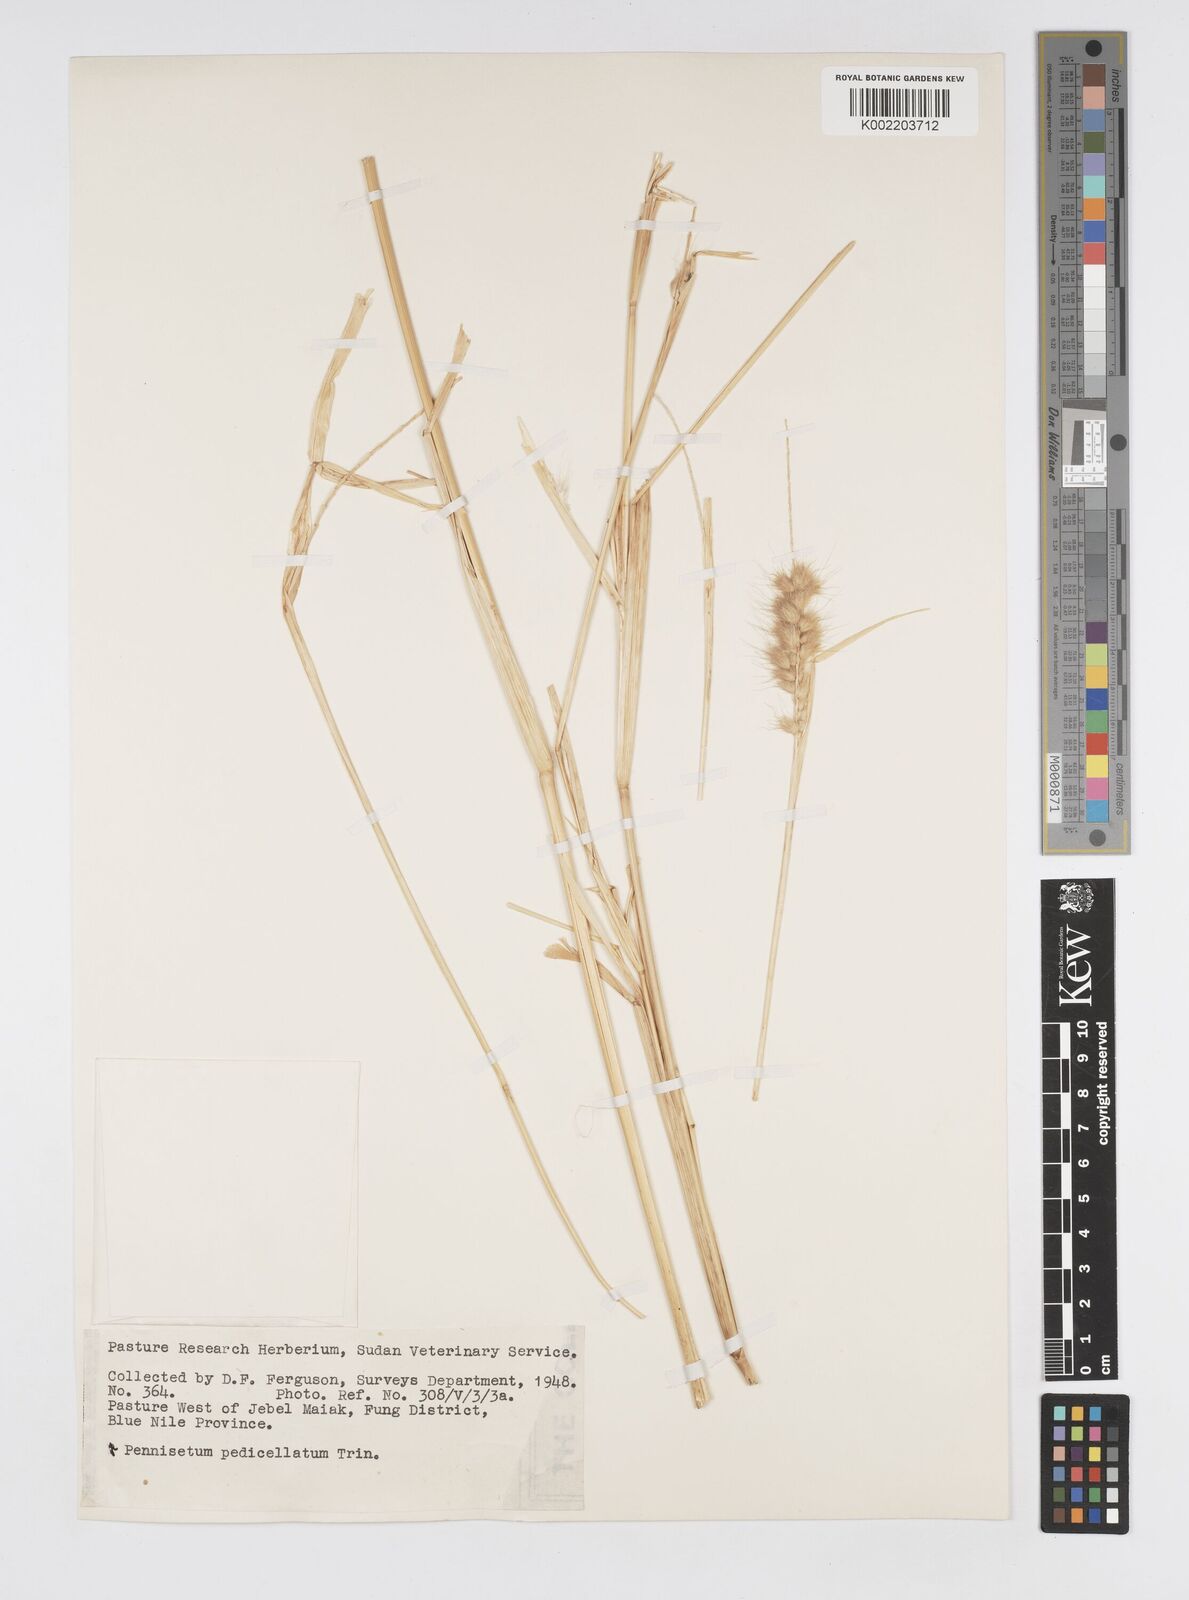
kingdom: Plantae
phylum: Tracheophyta
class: Liliopsida
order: Poales
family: Poaceae
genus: Cenchrus
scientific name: Cenchrus pedicellatus
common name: Hairy fountain grass
